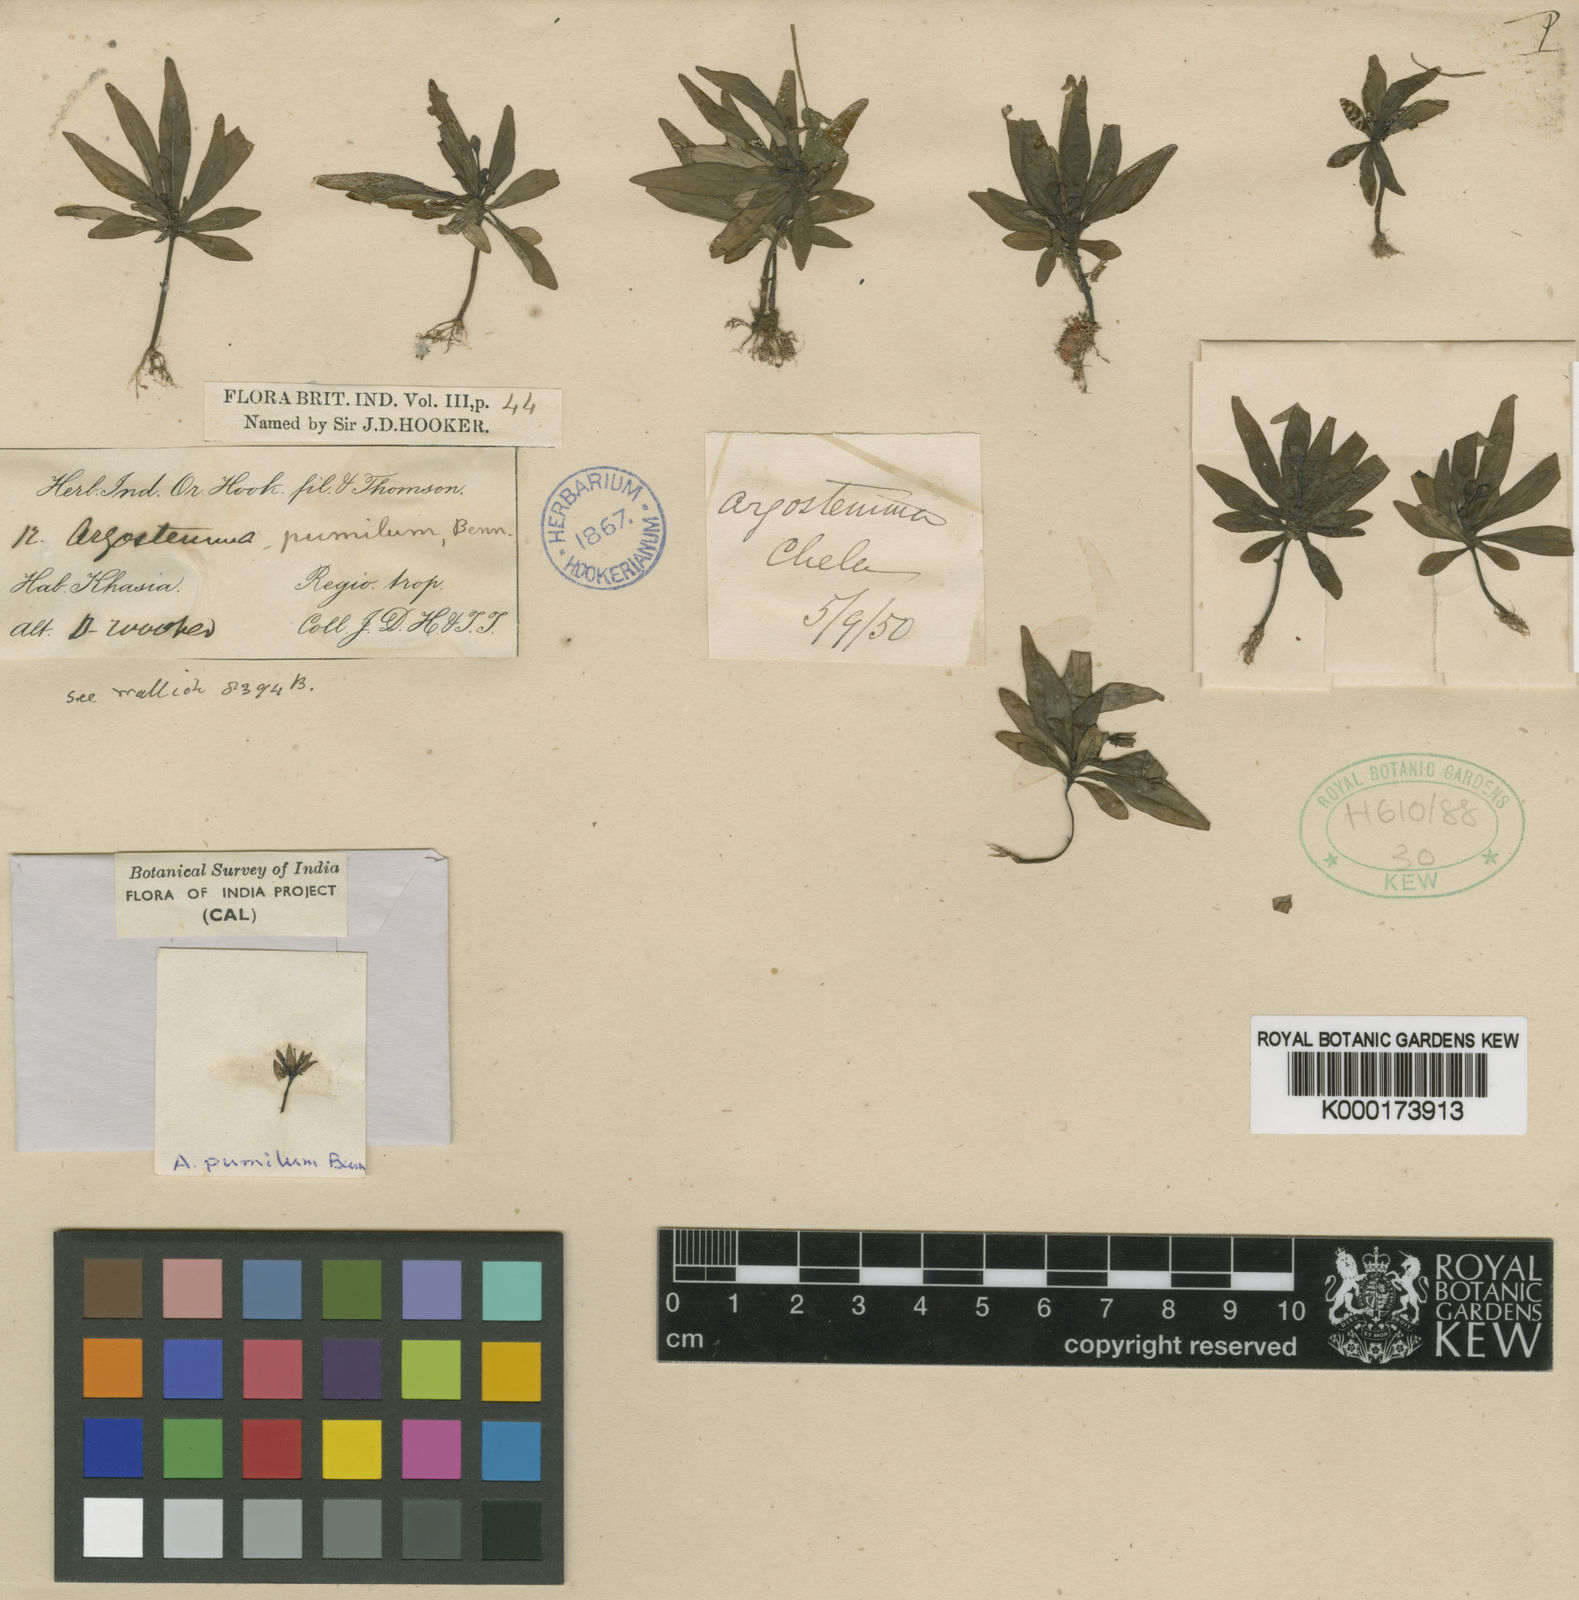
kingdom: Plantae
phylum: Tracheophyta
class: Magnoliopsida
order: Gentianales
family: Rubiaceae
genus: Argostemma
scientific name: Argostemma pumilum
